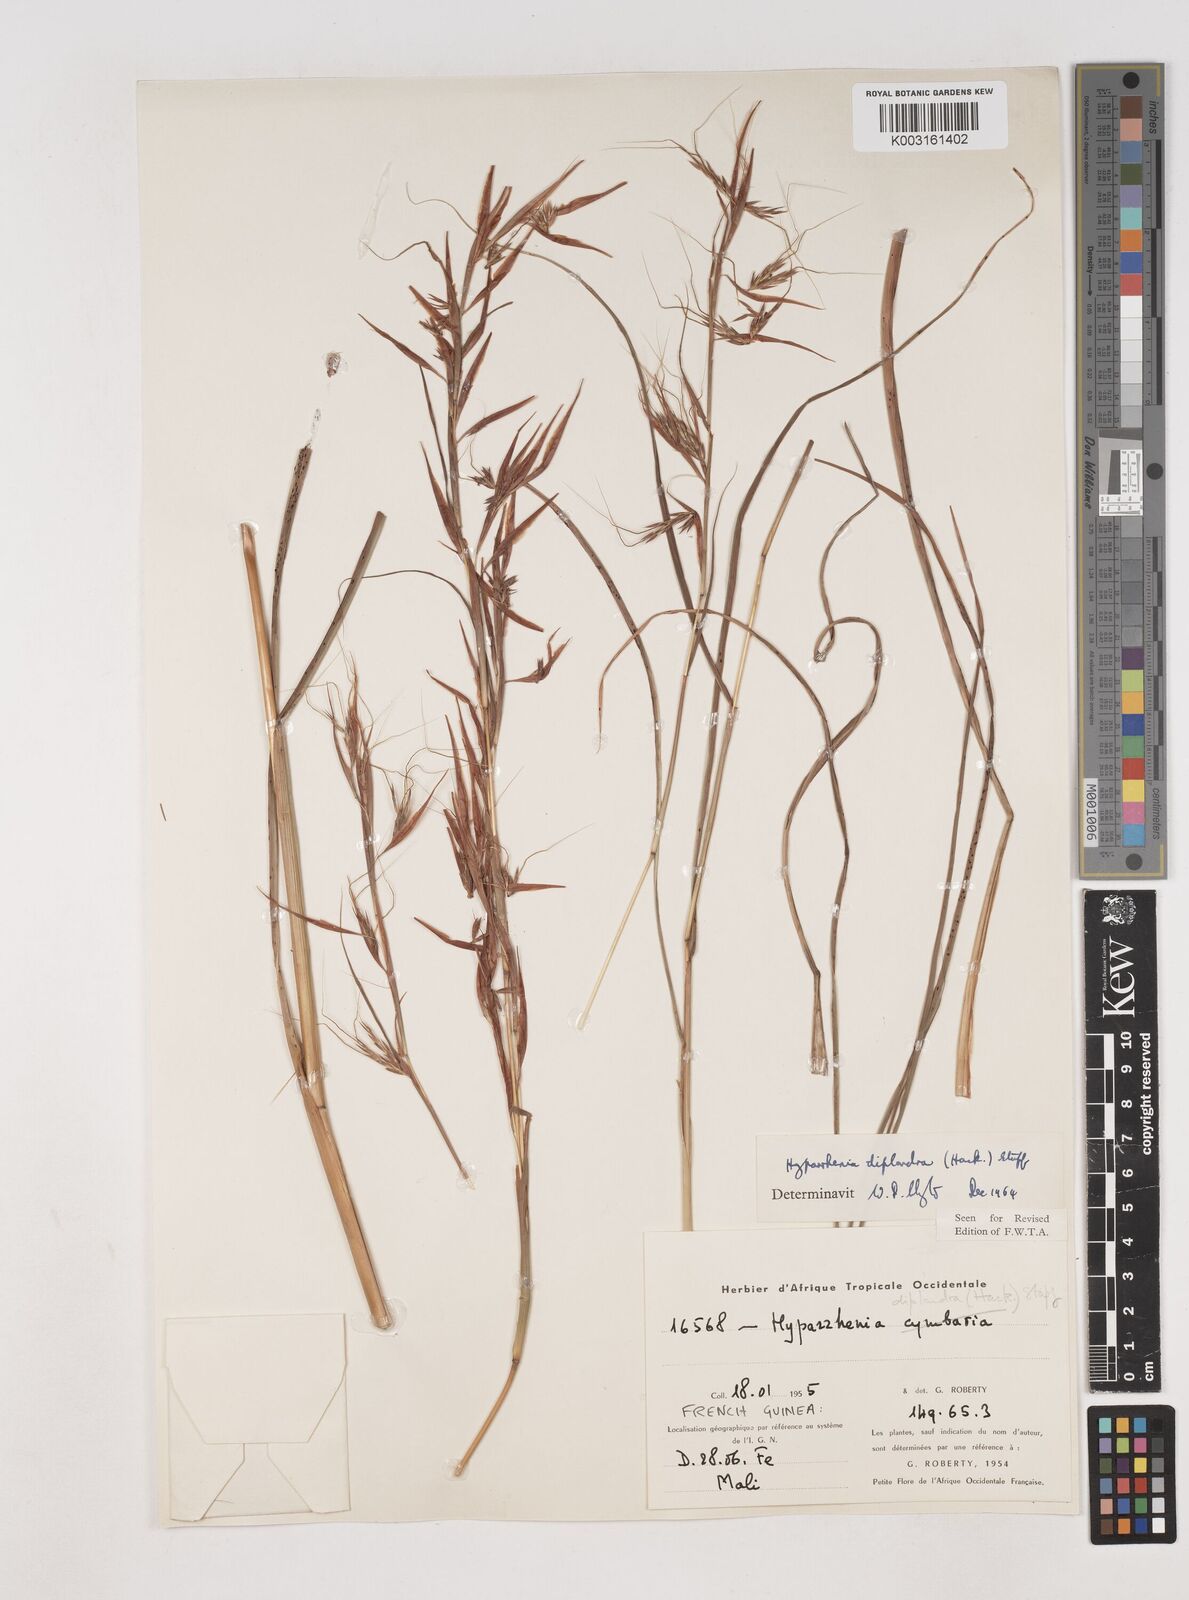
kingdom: Plantae
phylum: Tracheophyta
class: Liliopsida
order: Poales
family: Poaceae
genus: Hyparrhenia
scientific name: Hyparrhenia diplandra
